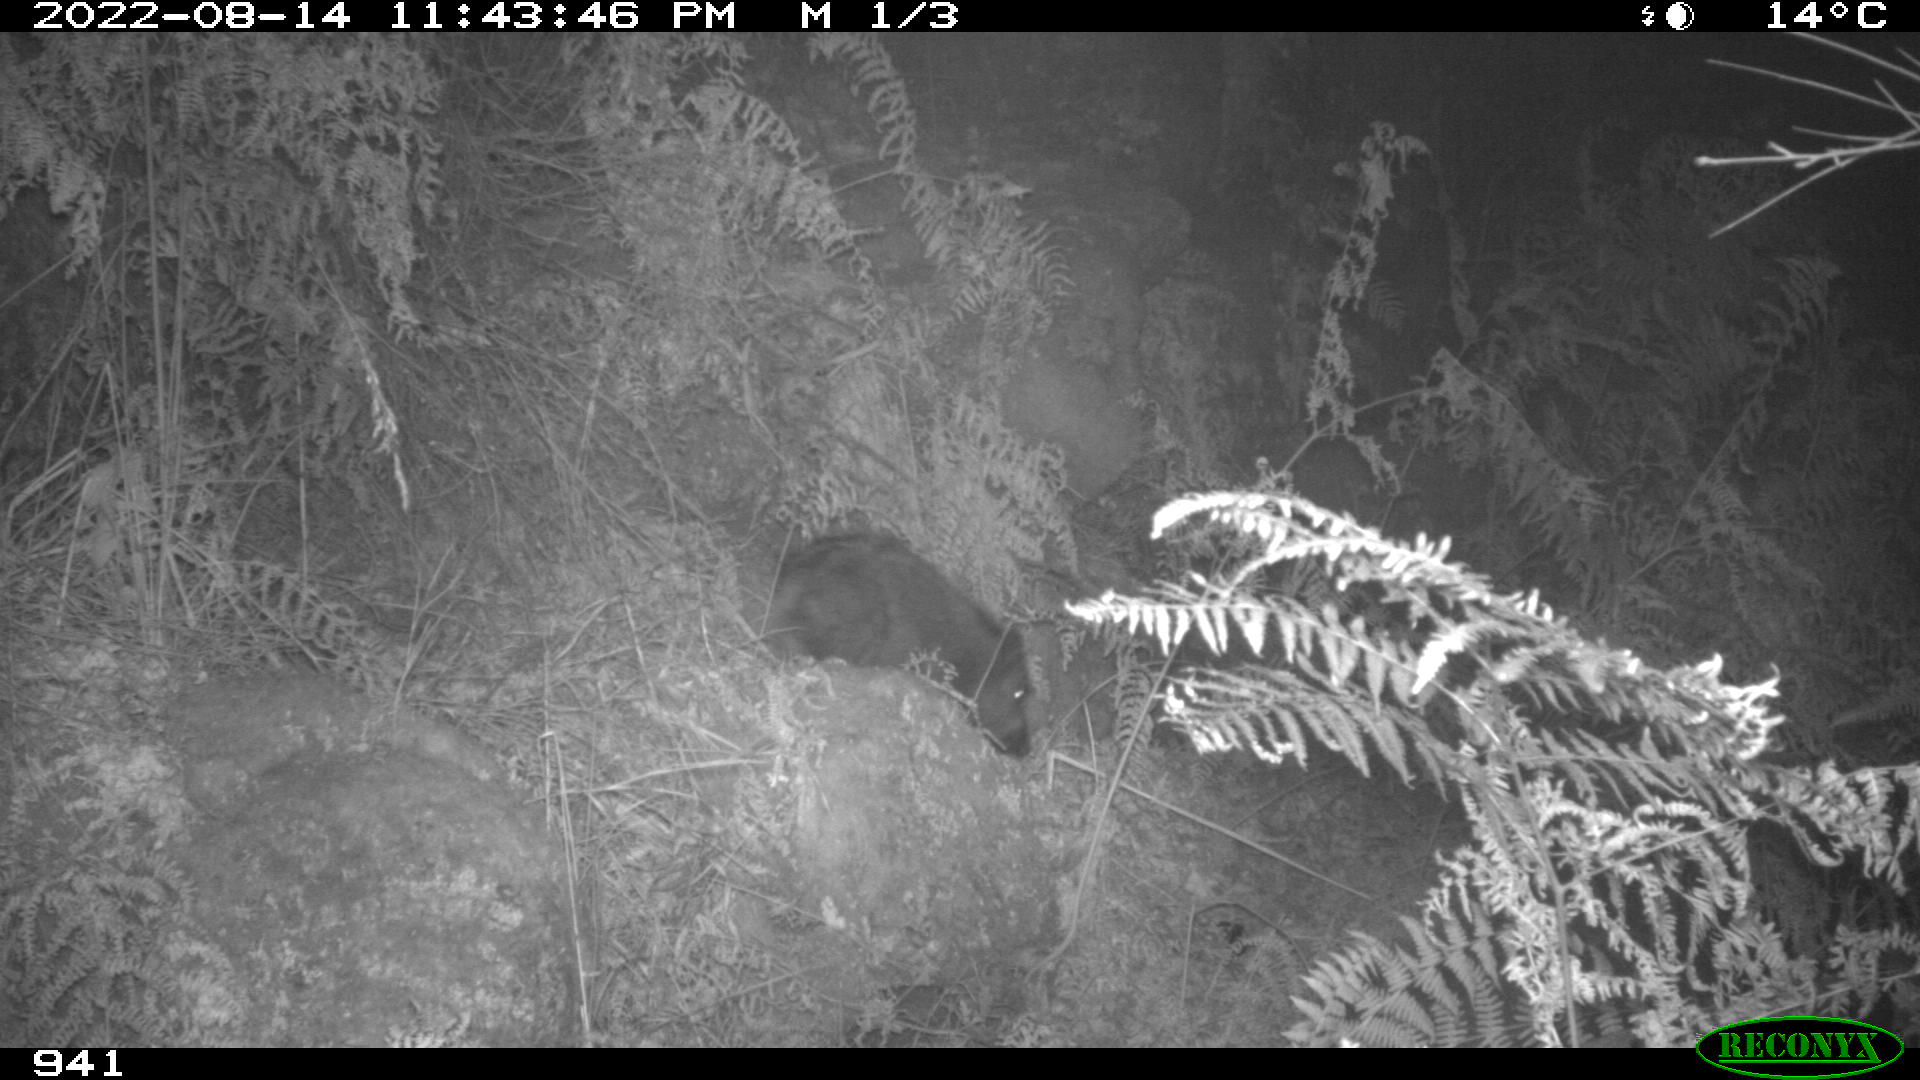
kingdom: Animalia
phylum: Chordata
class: Mammalia
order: Artiodactyla
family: Suidae
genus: Sus
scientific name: Sus scrofa
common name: Wild boar
